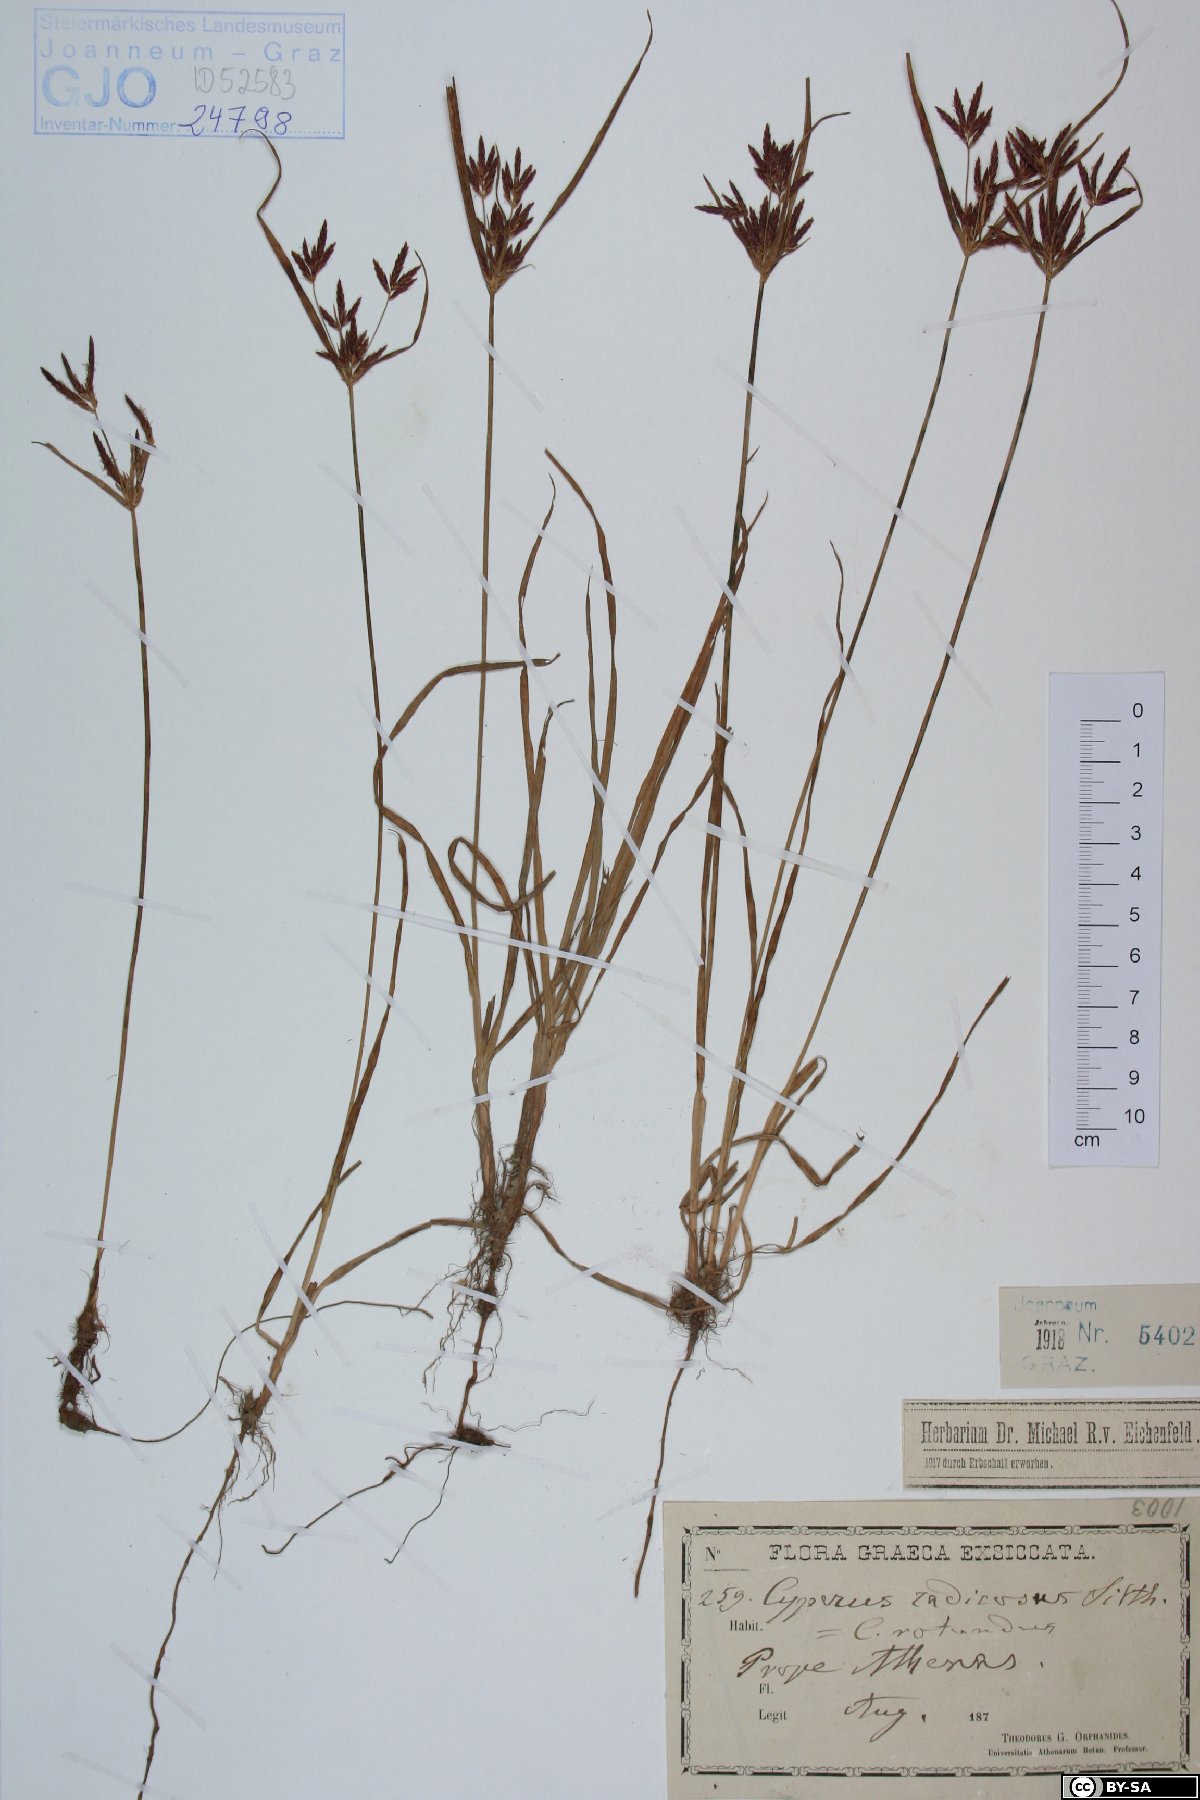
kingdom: Plantae
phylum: Tracheophyta
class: Liliopsida
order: Poales
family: Cyperaceae
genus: Cyperus
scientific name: Cyperus rotundus
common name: Nutgrass
